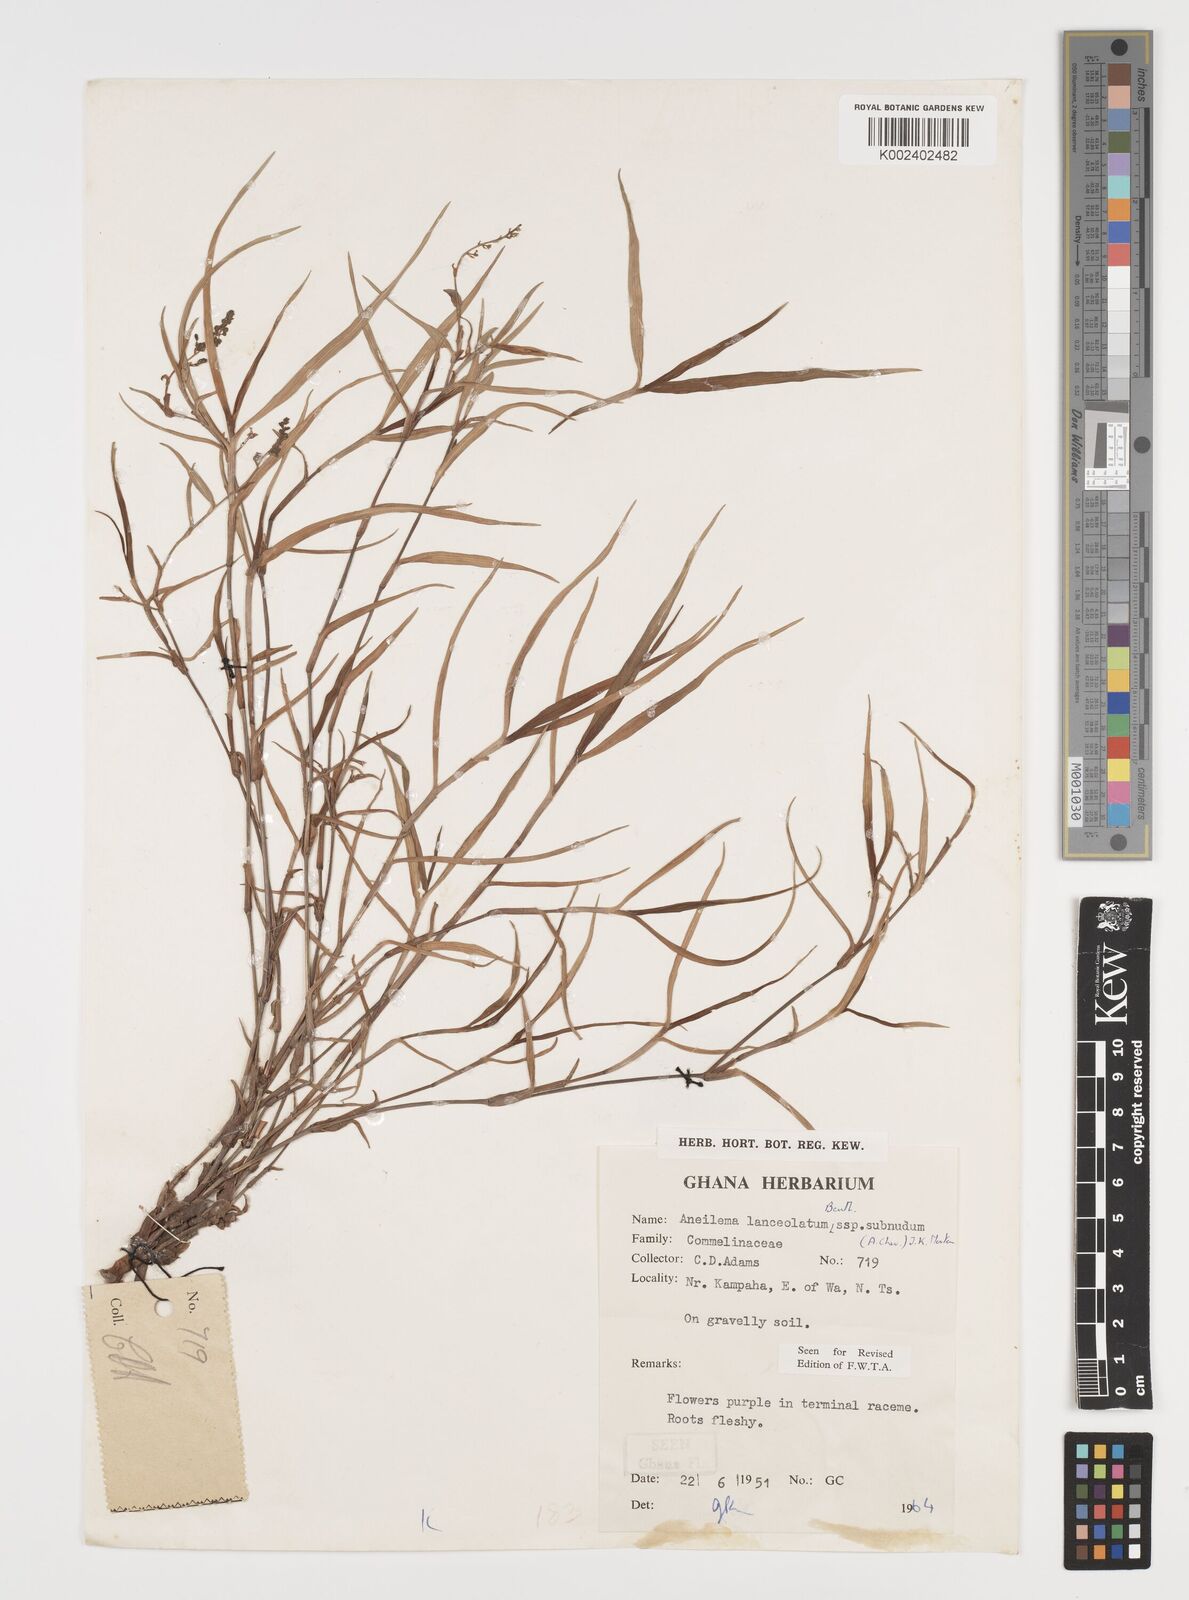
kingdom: Plantae
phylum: Tracheophyta
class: Liliopsida
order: Commelinales
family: Commelinaceae
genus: Aneilema
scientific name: Aneilema lanceolatum
